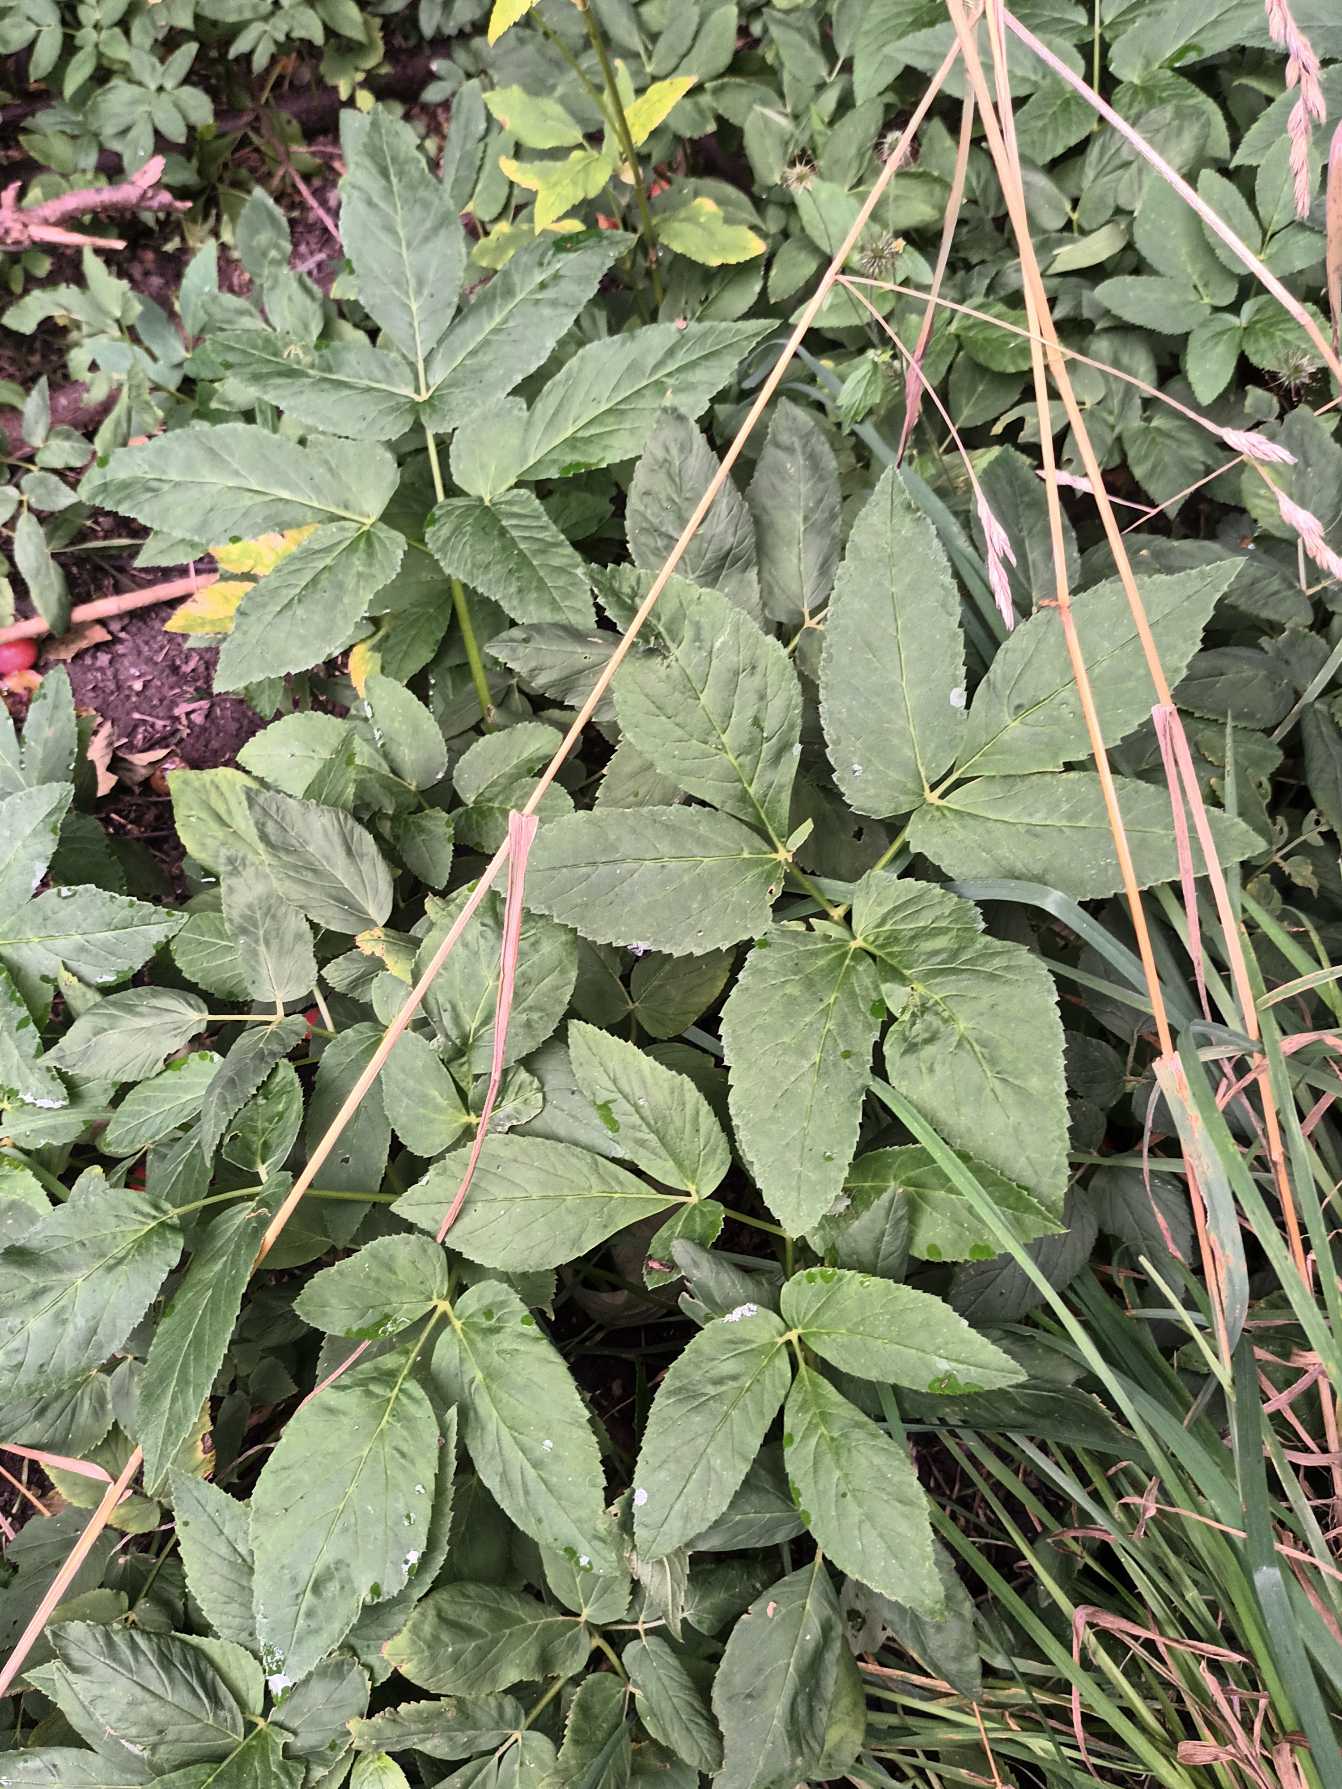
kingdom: Plantae
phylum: Tracheophyta
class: Magnoliopsida
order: Apiales
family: Apiaceae
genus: Aegopodium
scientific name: Aegopodium podagraria
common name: Skvalderkål
